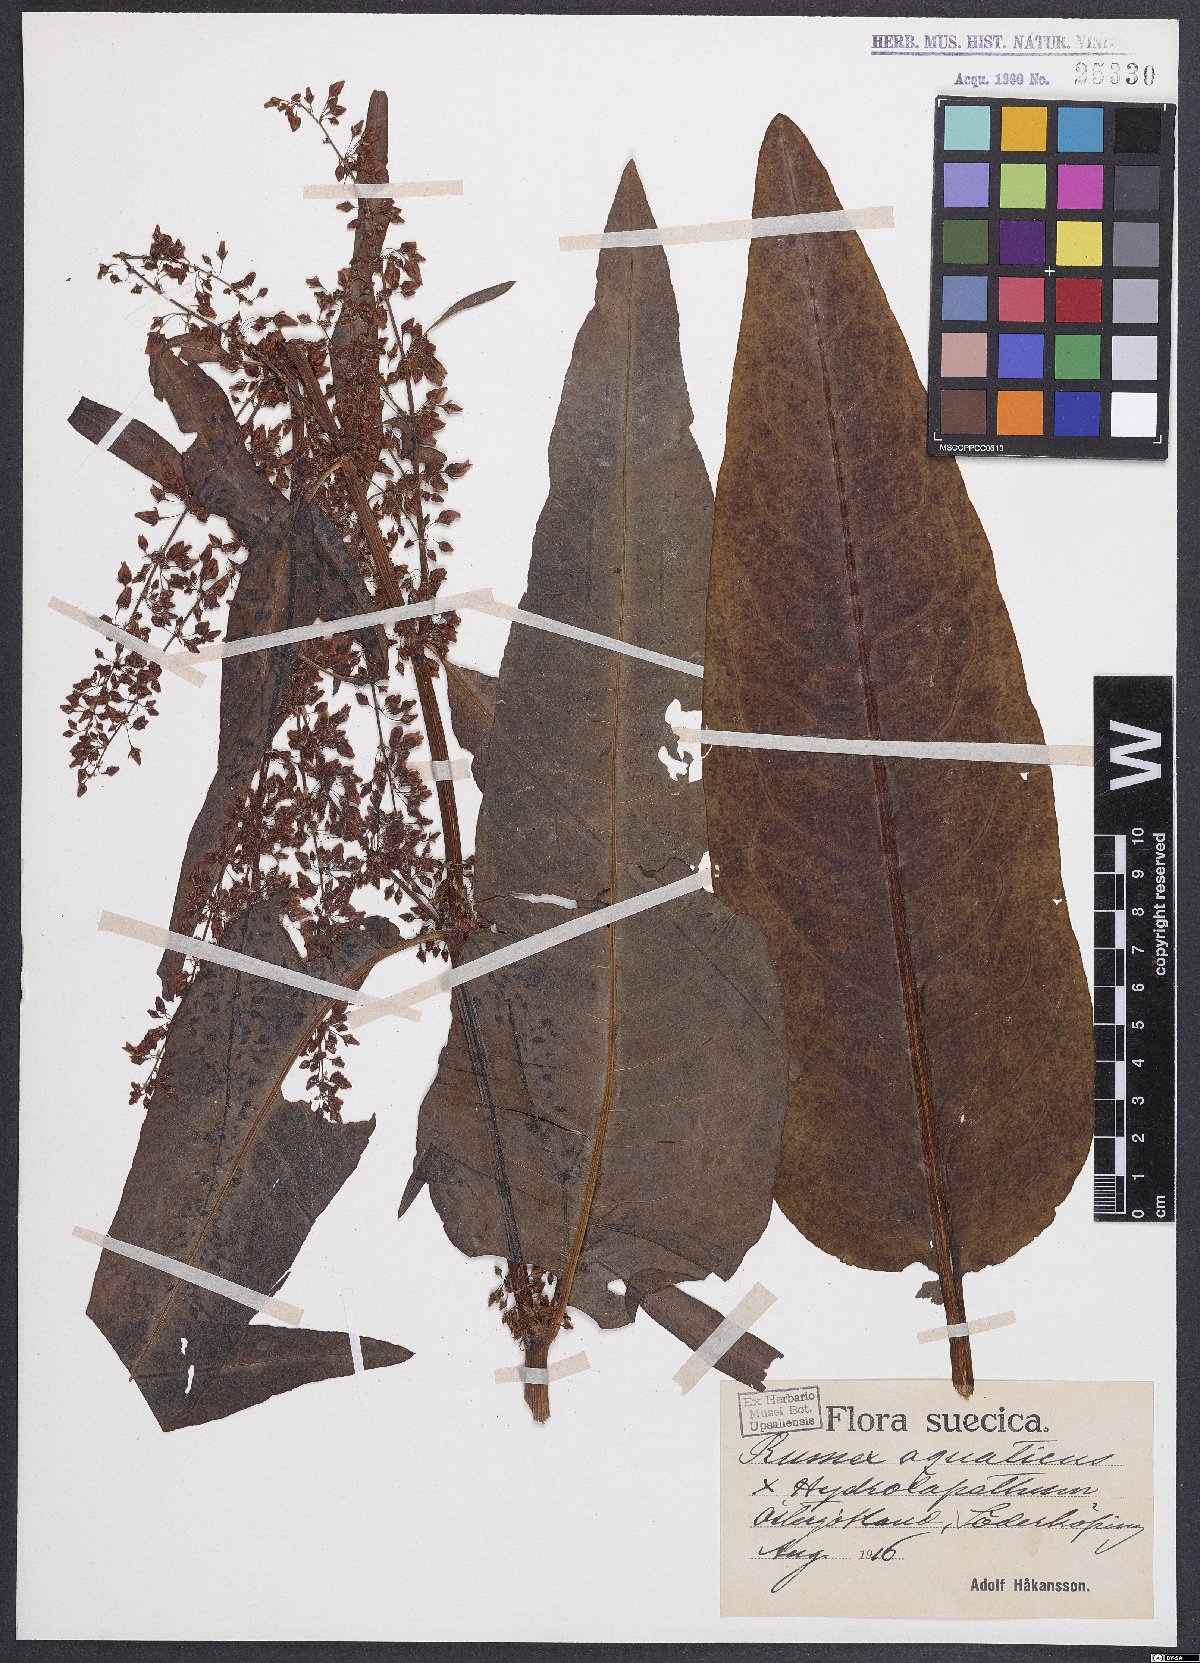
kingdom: Plantae
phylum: Tracheophyta
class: Magnoliopsida
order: Caryophyllales
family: Polygonaceae
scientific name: Polygonaceae
